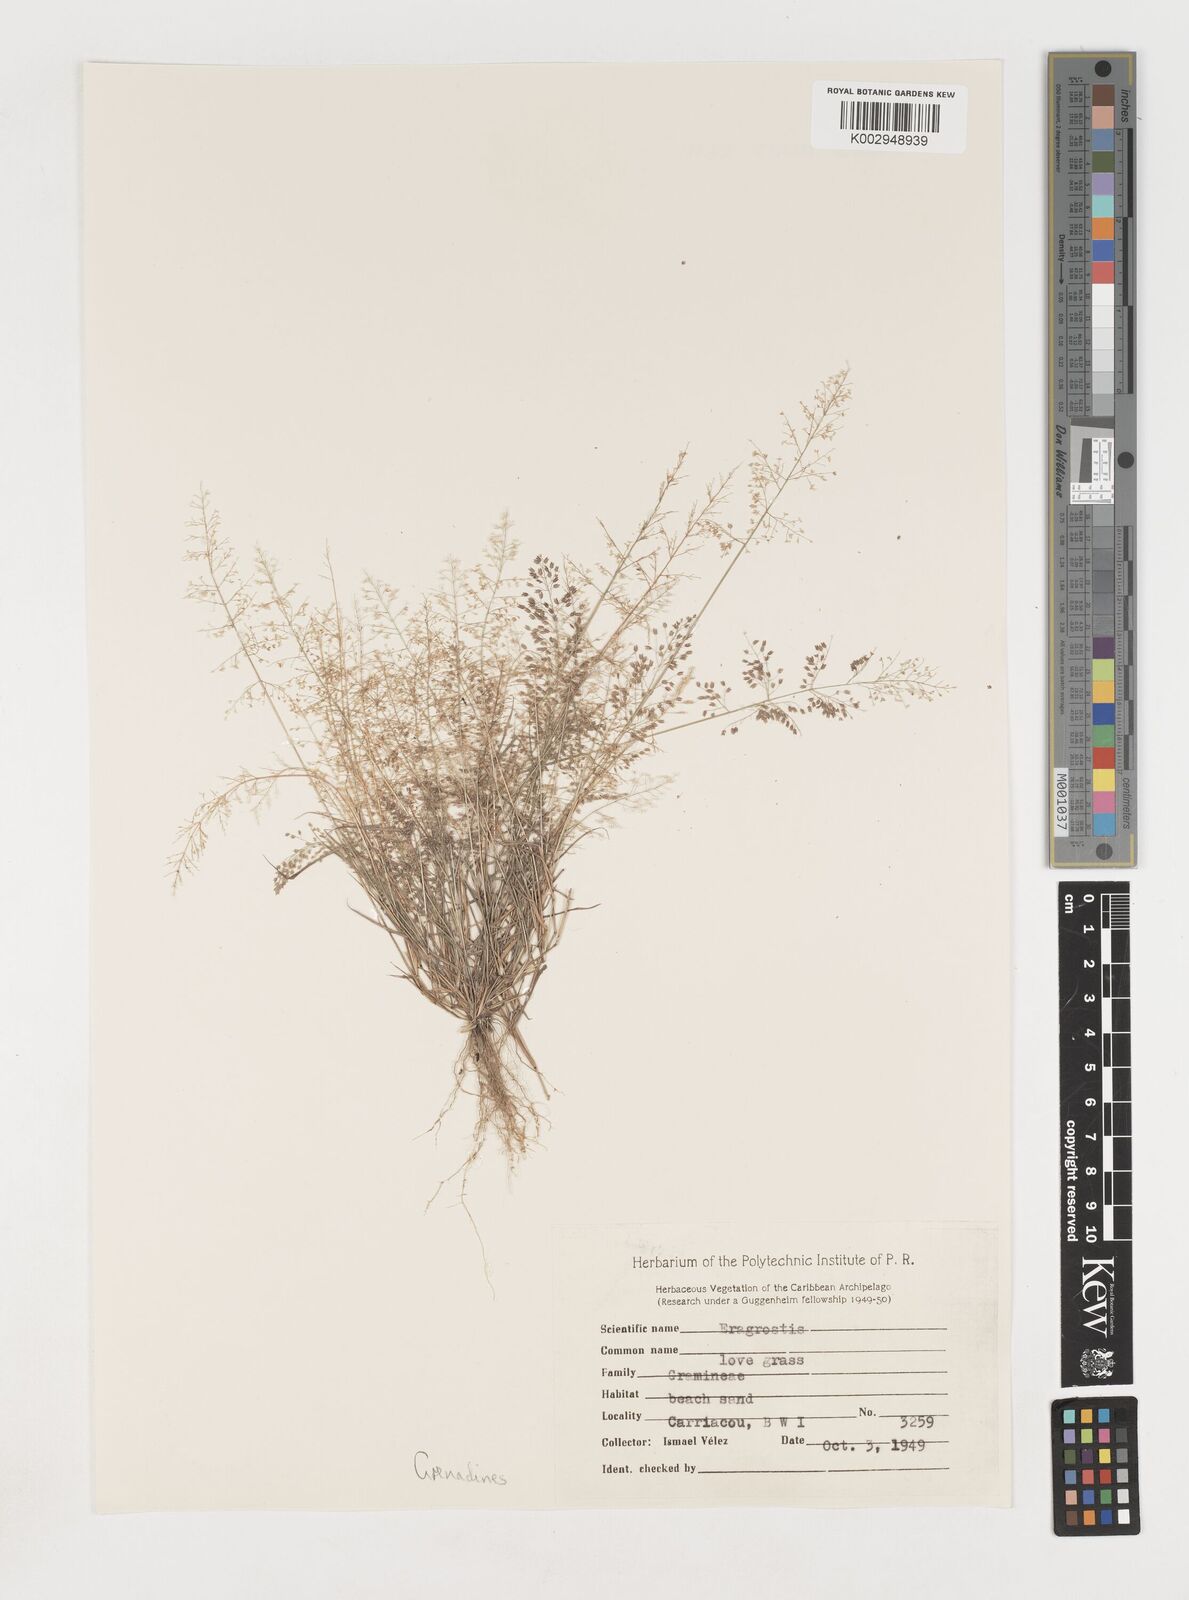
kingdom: Plantae
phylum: Tracheophyta
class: Liliopsida
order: Poales
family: Poaceae
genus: Eragrostis
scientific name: Eragrostis tenella
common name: Japanese lovegrass
